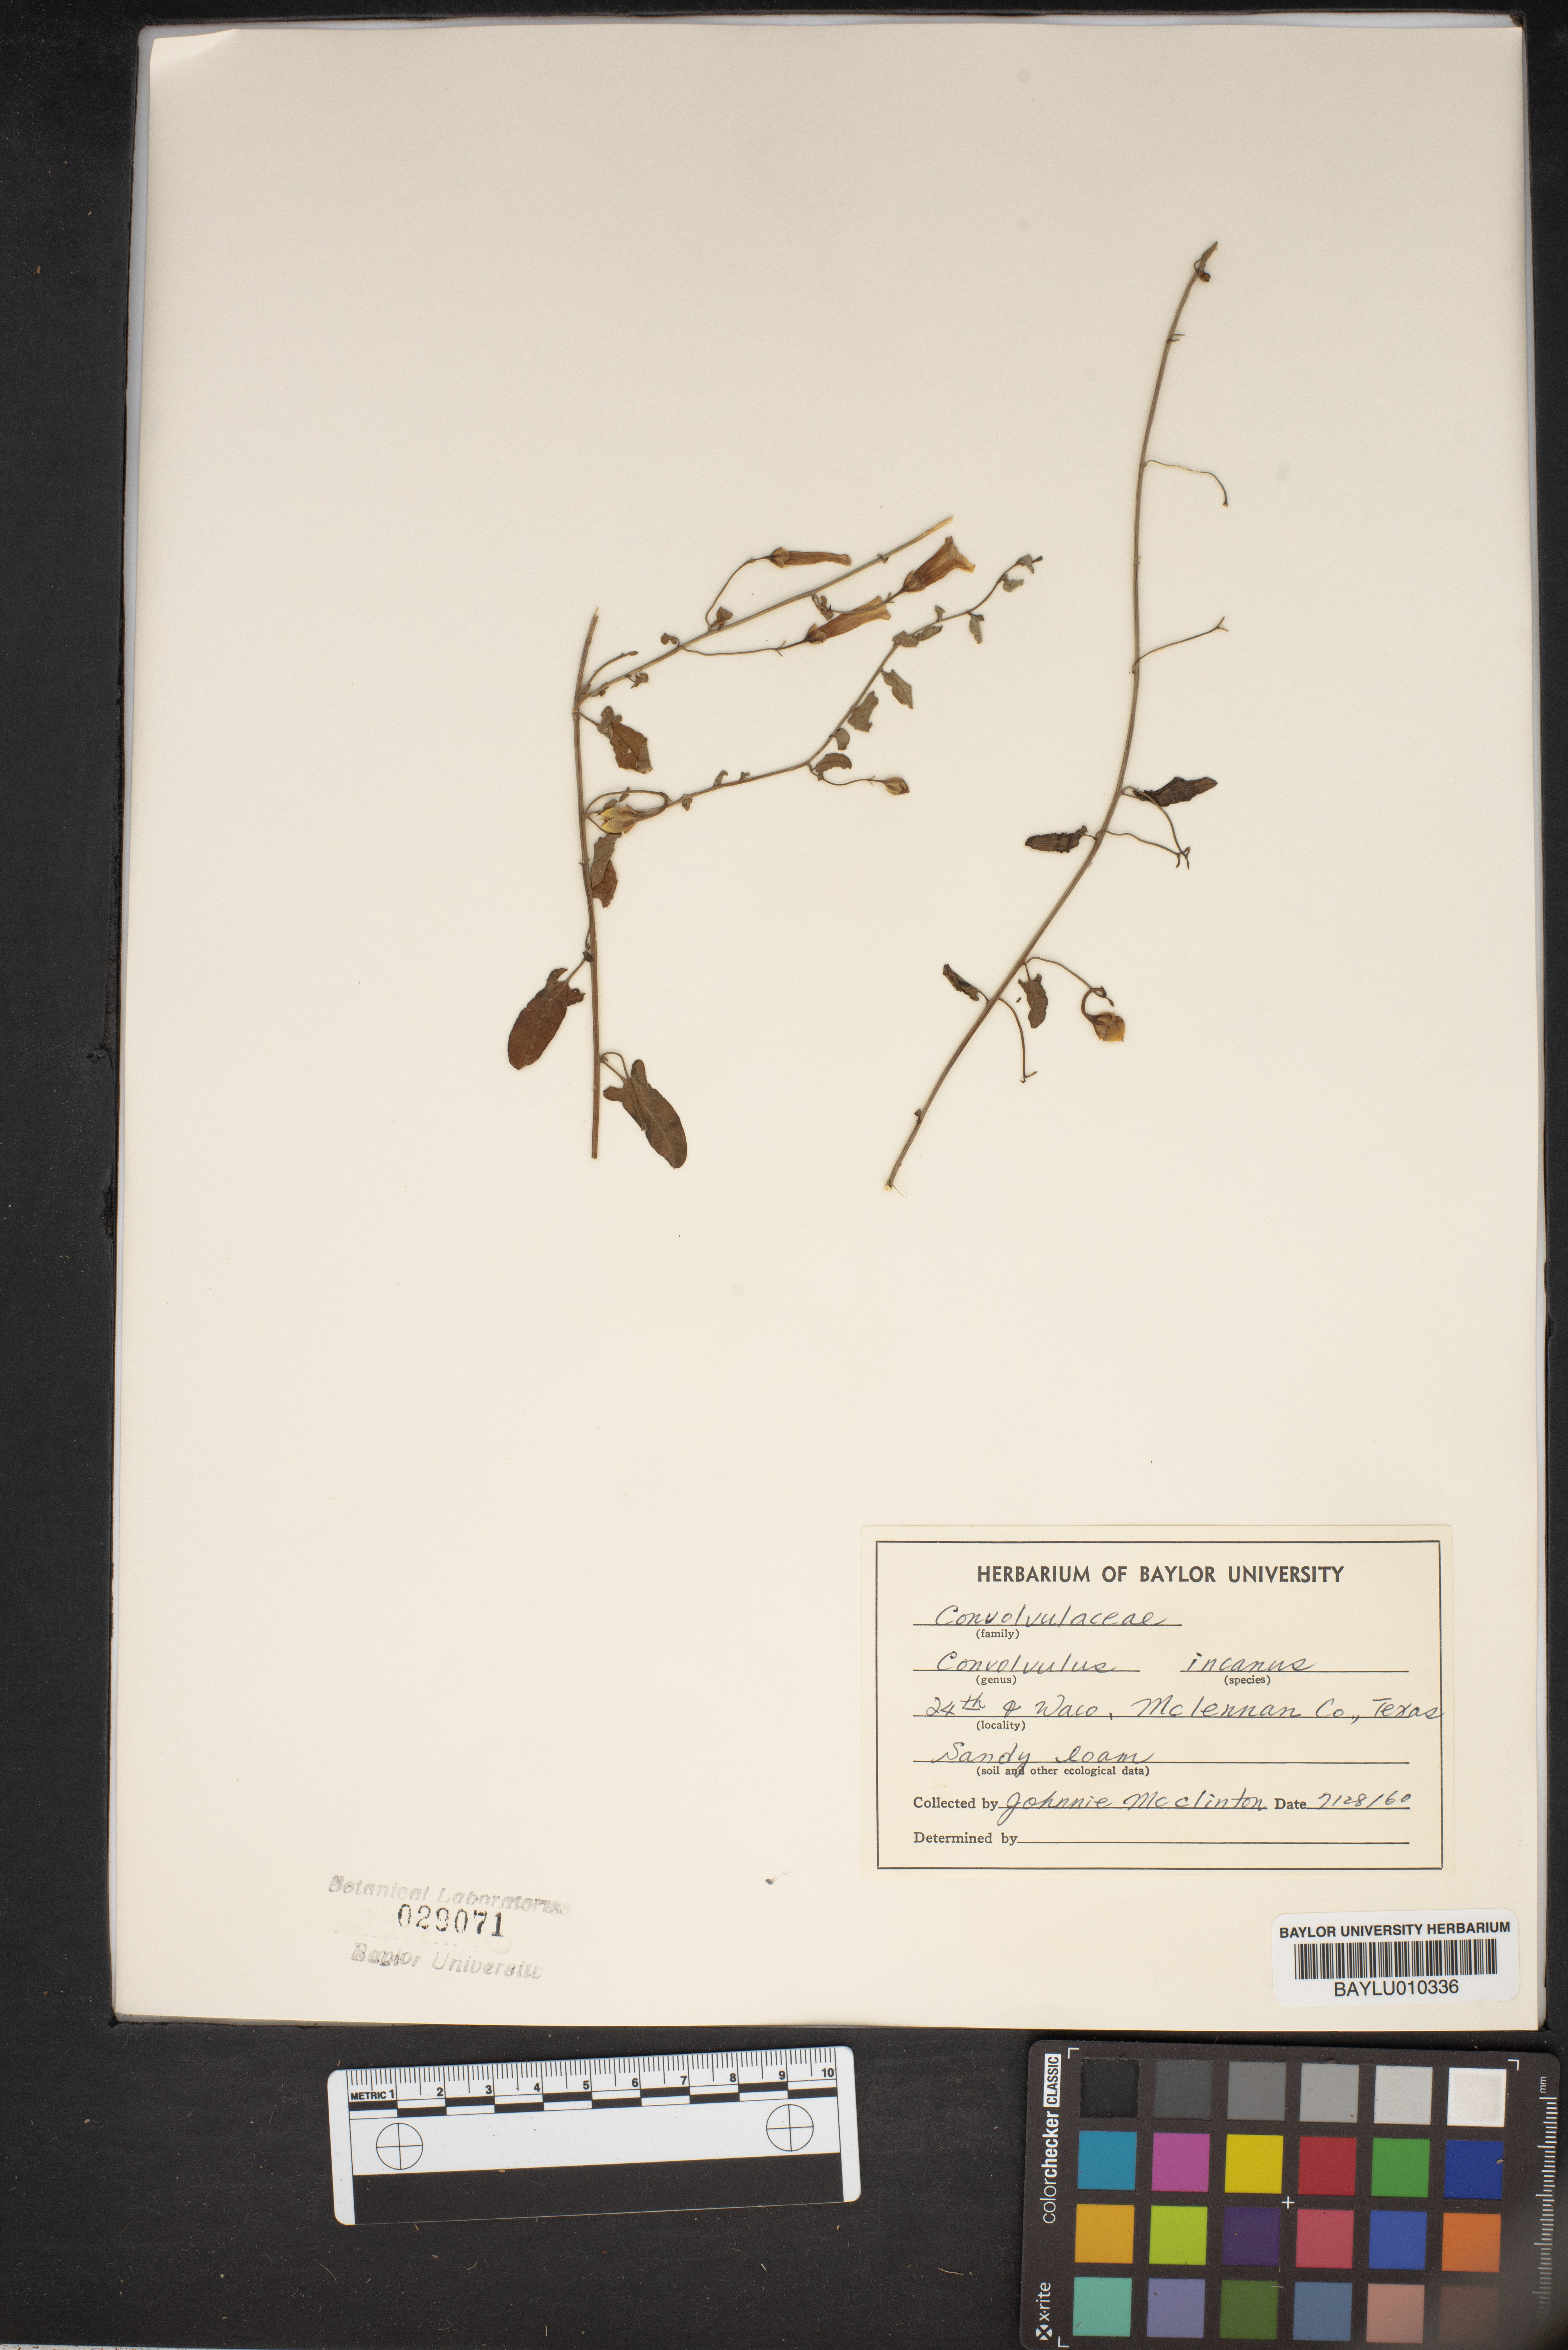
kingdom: Plantae
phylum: Tracheophyta
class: Magnoliopsida
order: Solanales
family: Convolvulaceae
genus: Convolvulus
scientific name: Convolvulus hermanniae
